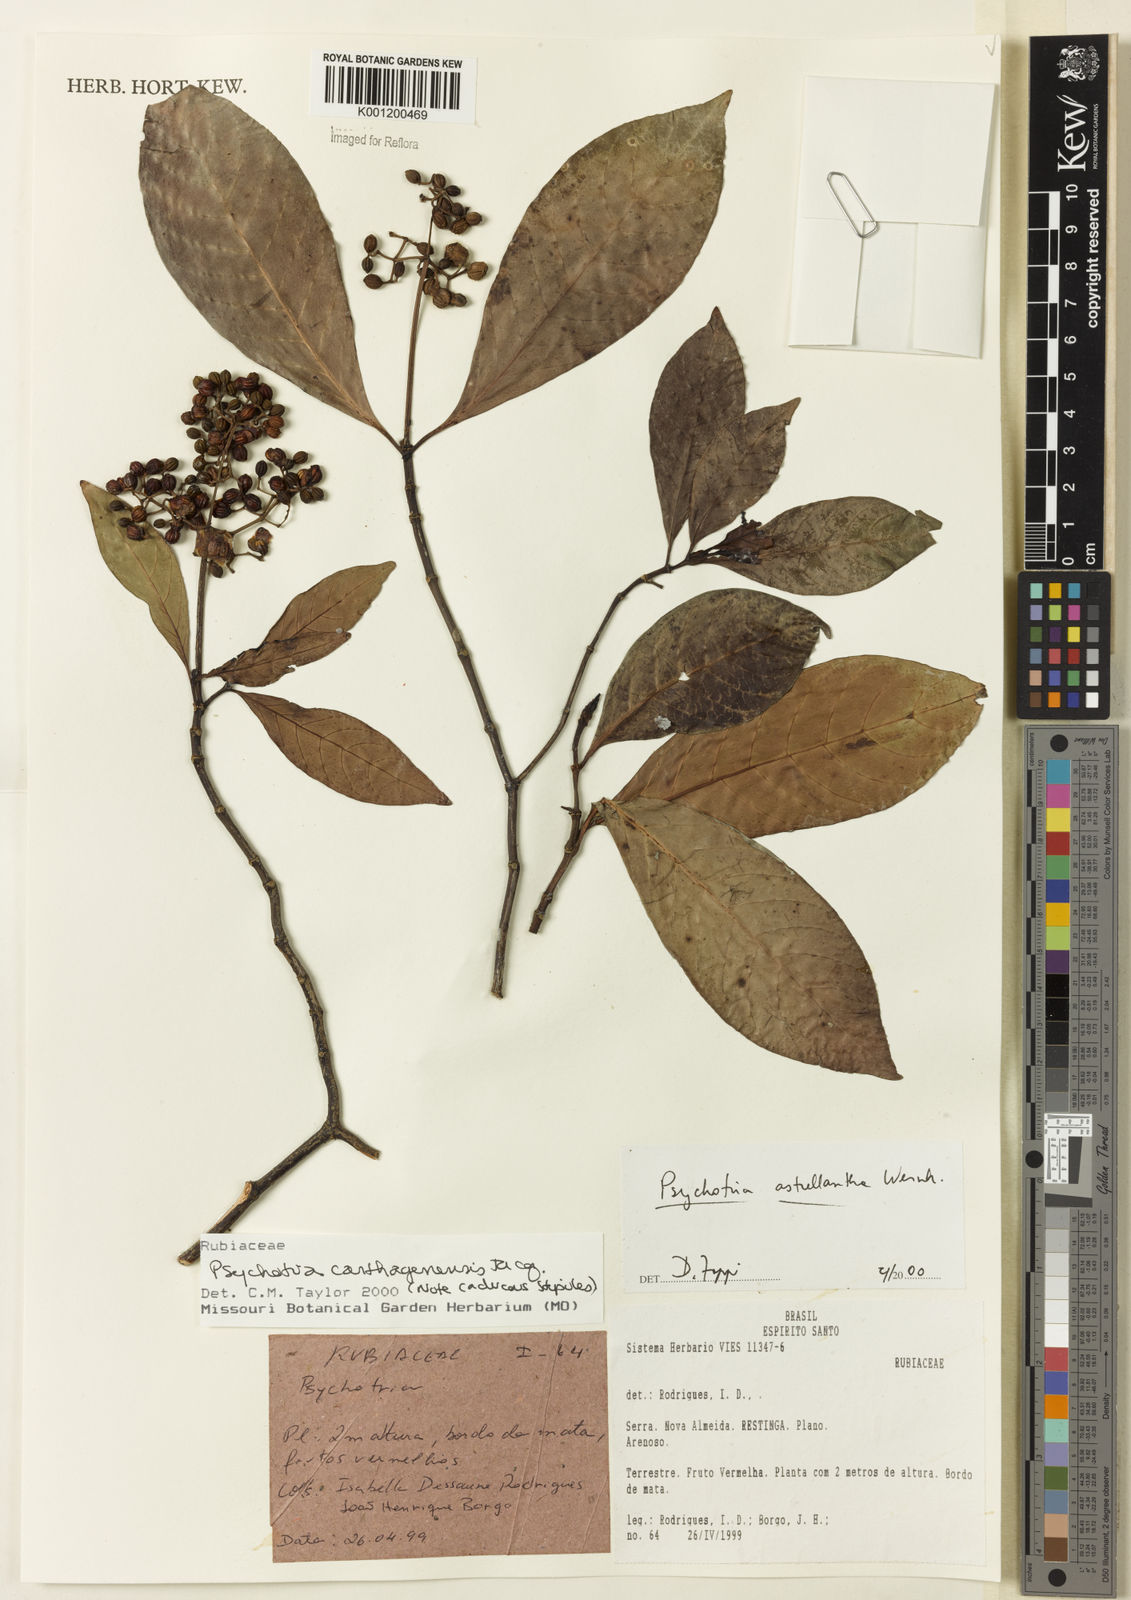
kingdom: Plantae
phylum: Tracheophyta
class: Magnoliopsida
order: Gentianales
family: Rubiaceae
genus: Psychotria
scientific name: Psychotria carthagenensis
